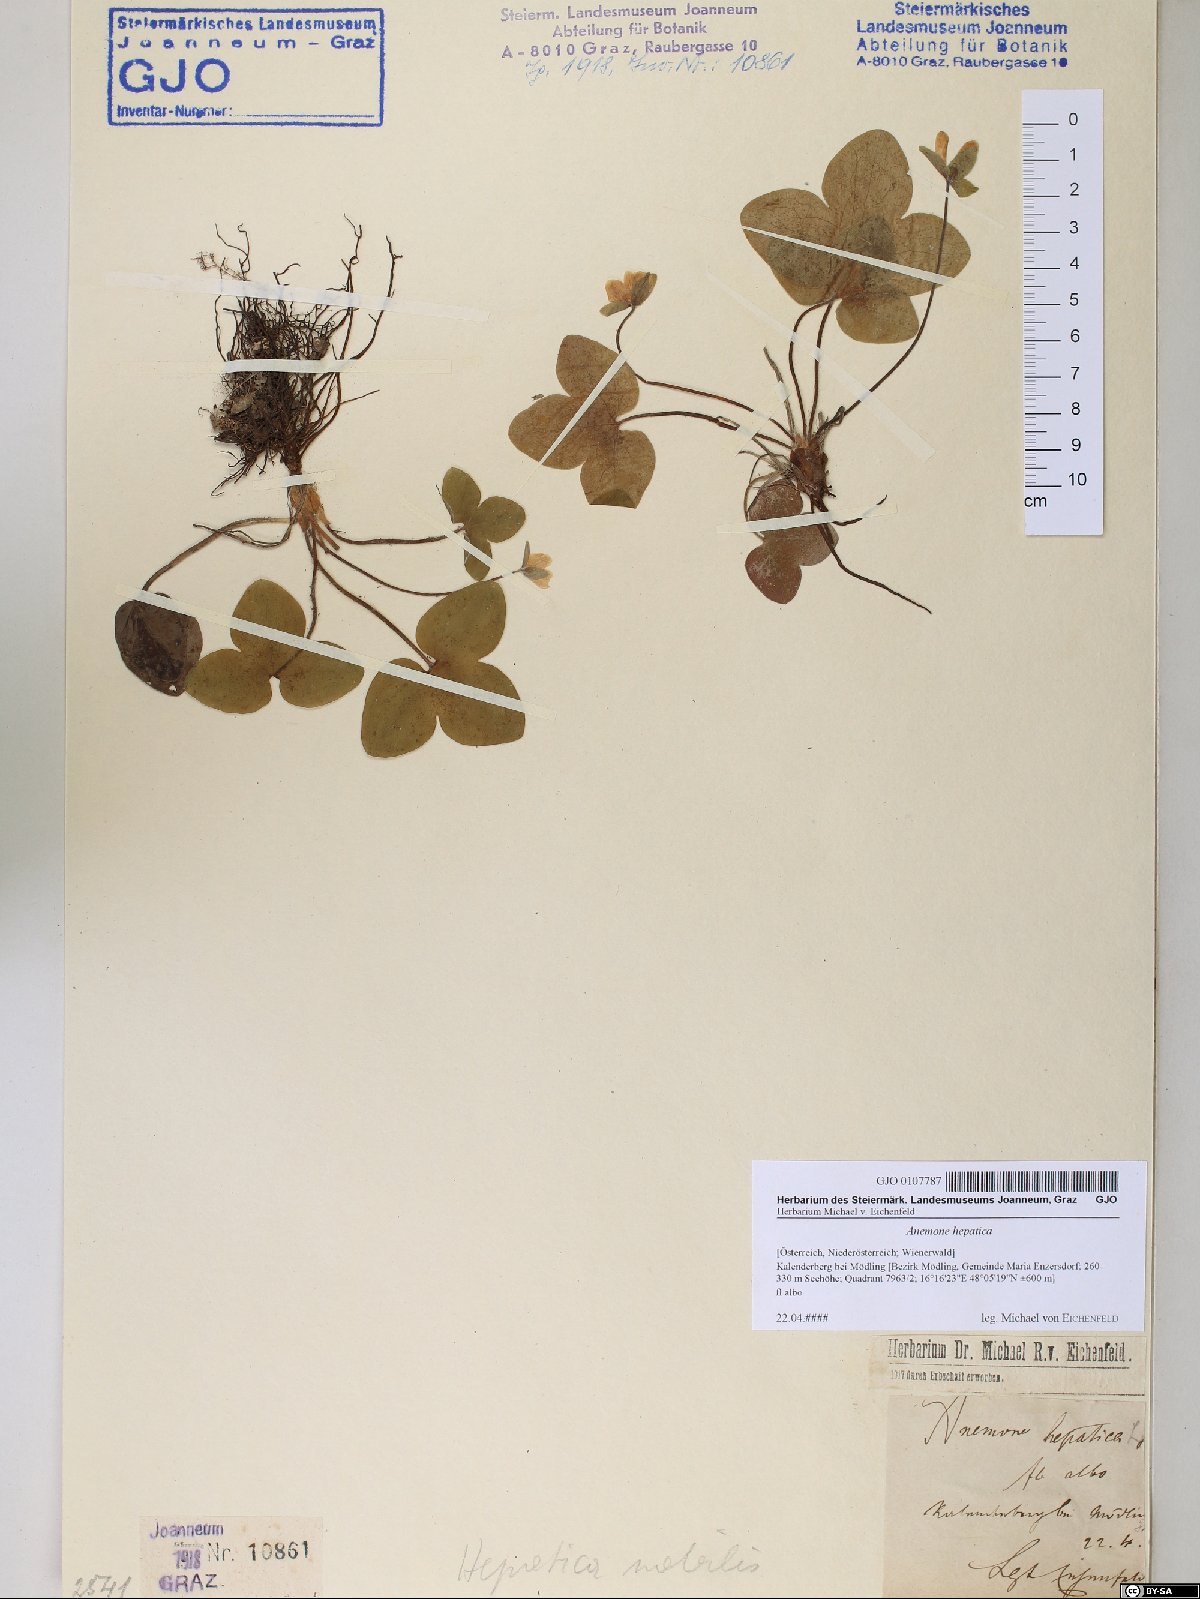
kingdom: Plantae
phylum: Tracheophyta
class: Magnoliopsida
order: Ranunculales
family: Ranunculaceae
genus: Hepatica
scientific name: Hepatica nobilis
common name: Liverleaf
